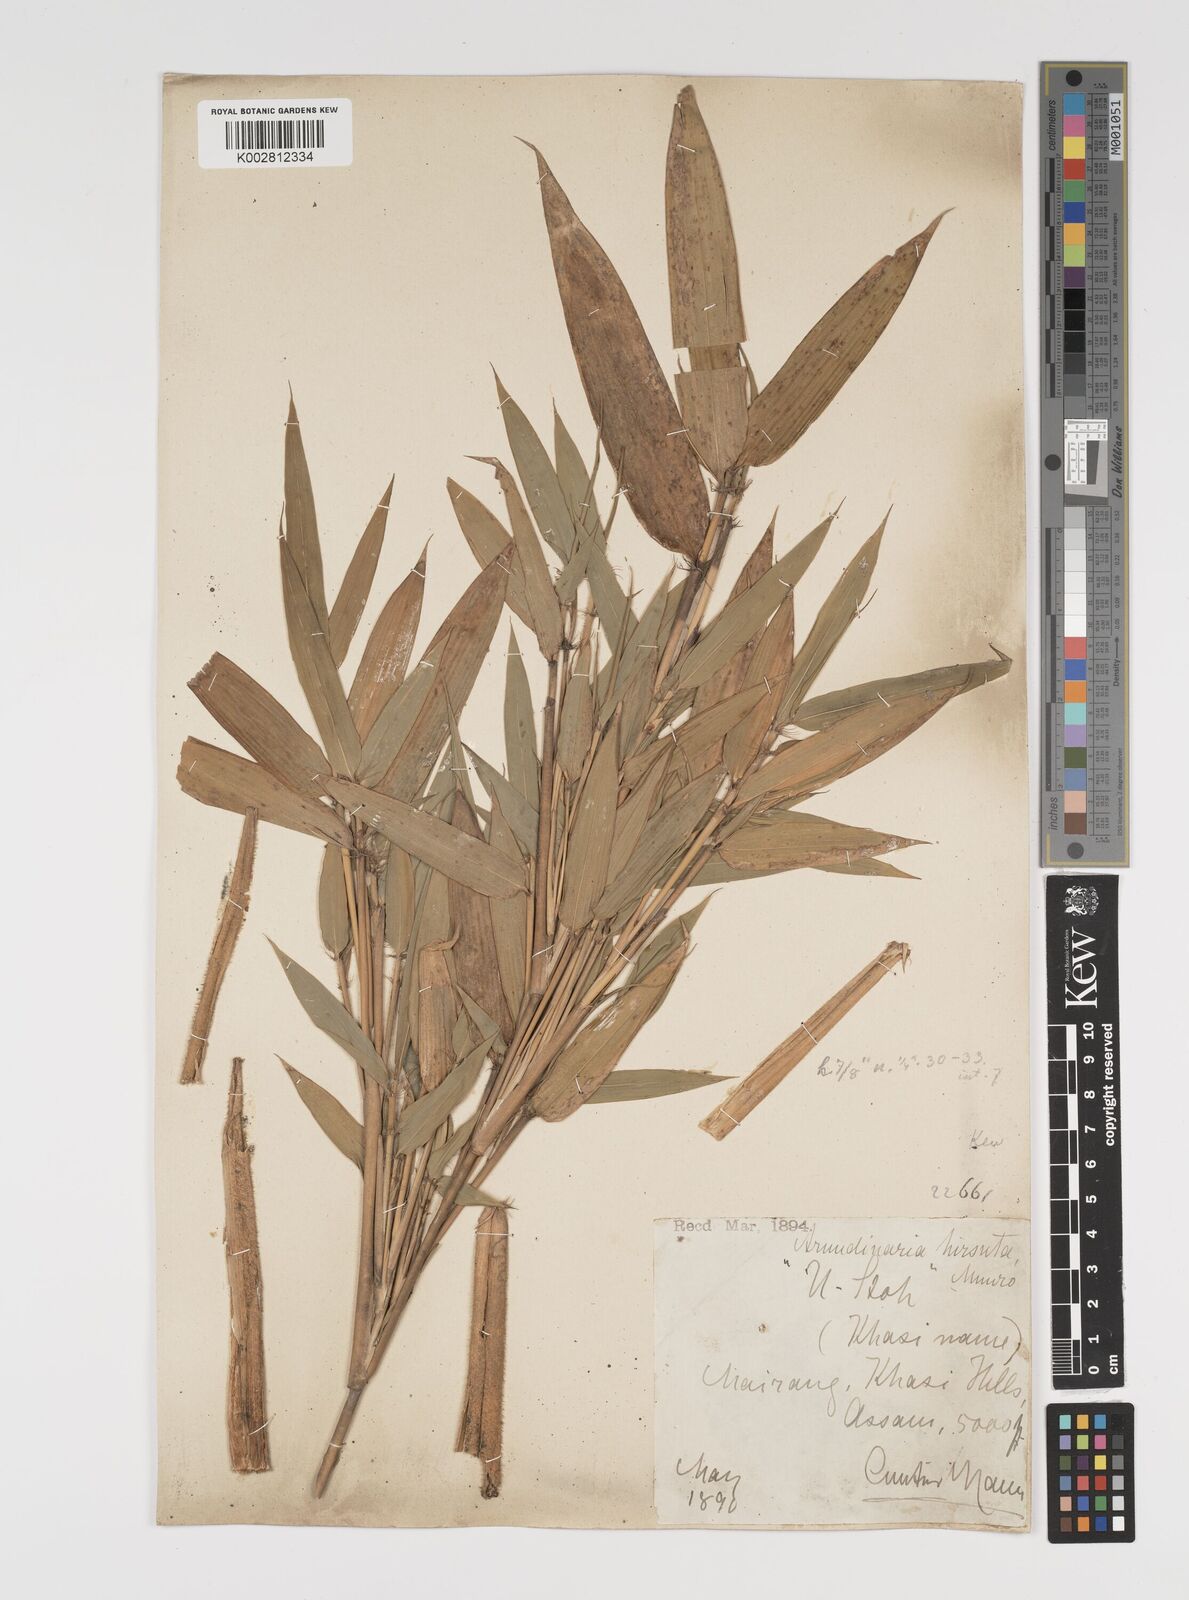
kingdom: Plantae
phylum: Tracheophyta
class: Liliopsida
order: Poales
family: Poaceae
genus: Yushania
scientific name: Yushania hirsuta
